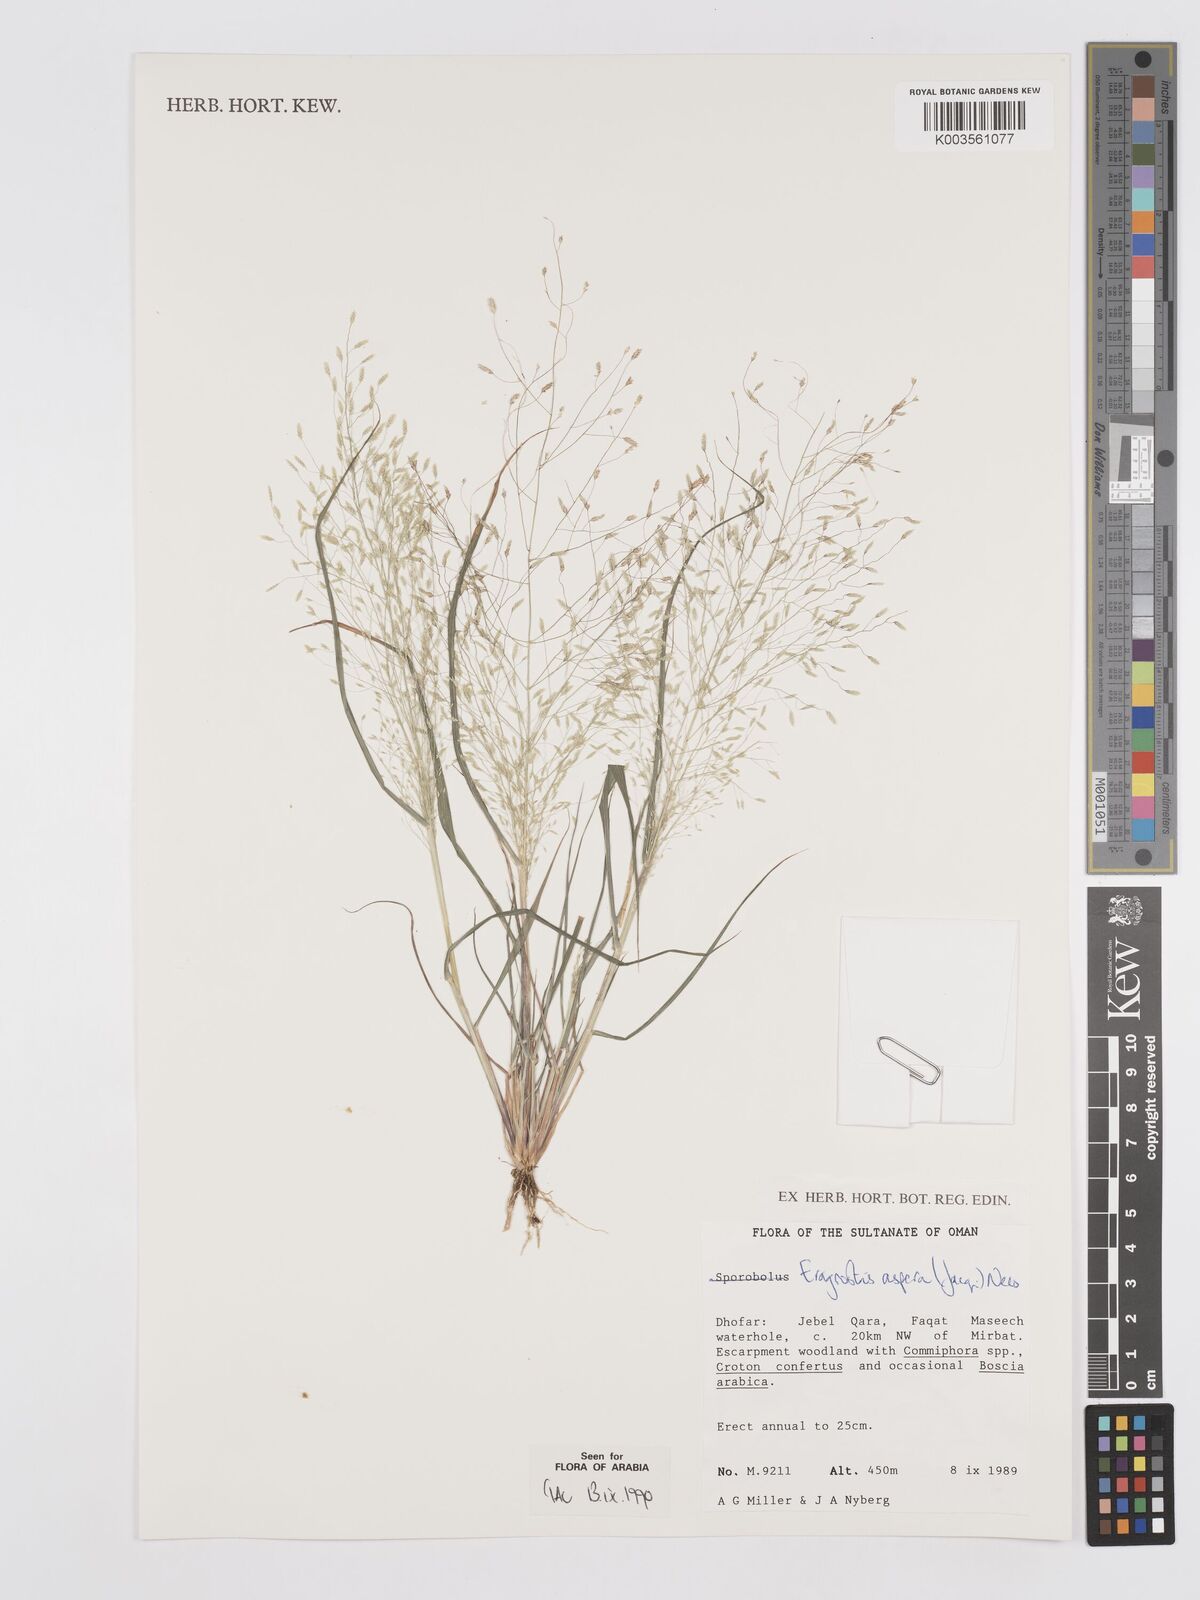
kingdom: Plantae
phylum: Tracheophyta
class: Liliopsida
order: Poales
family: Poaceae
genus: Eragrostis
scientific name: Eragrostis aspera
